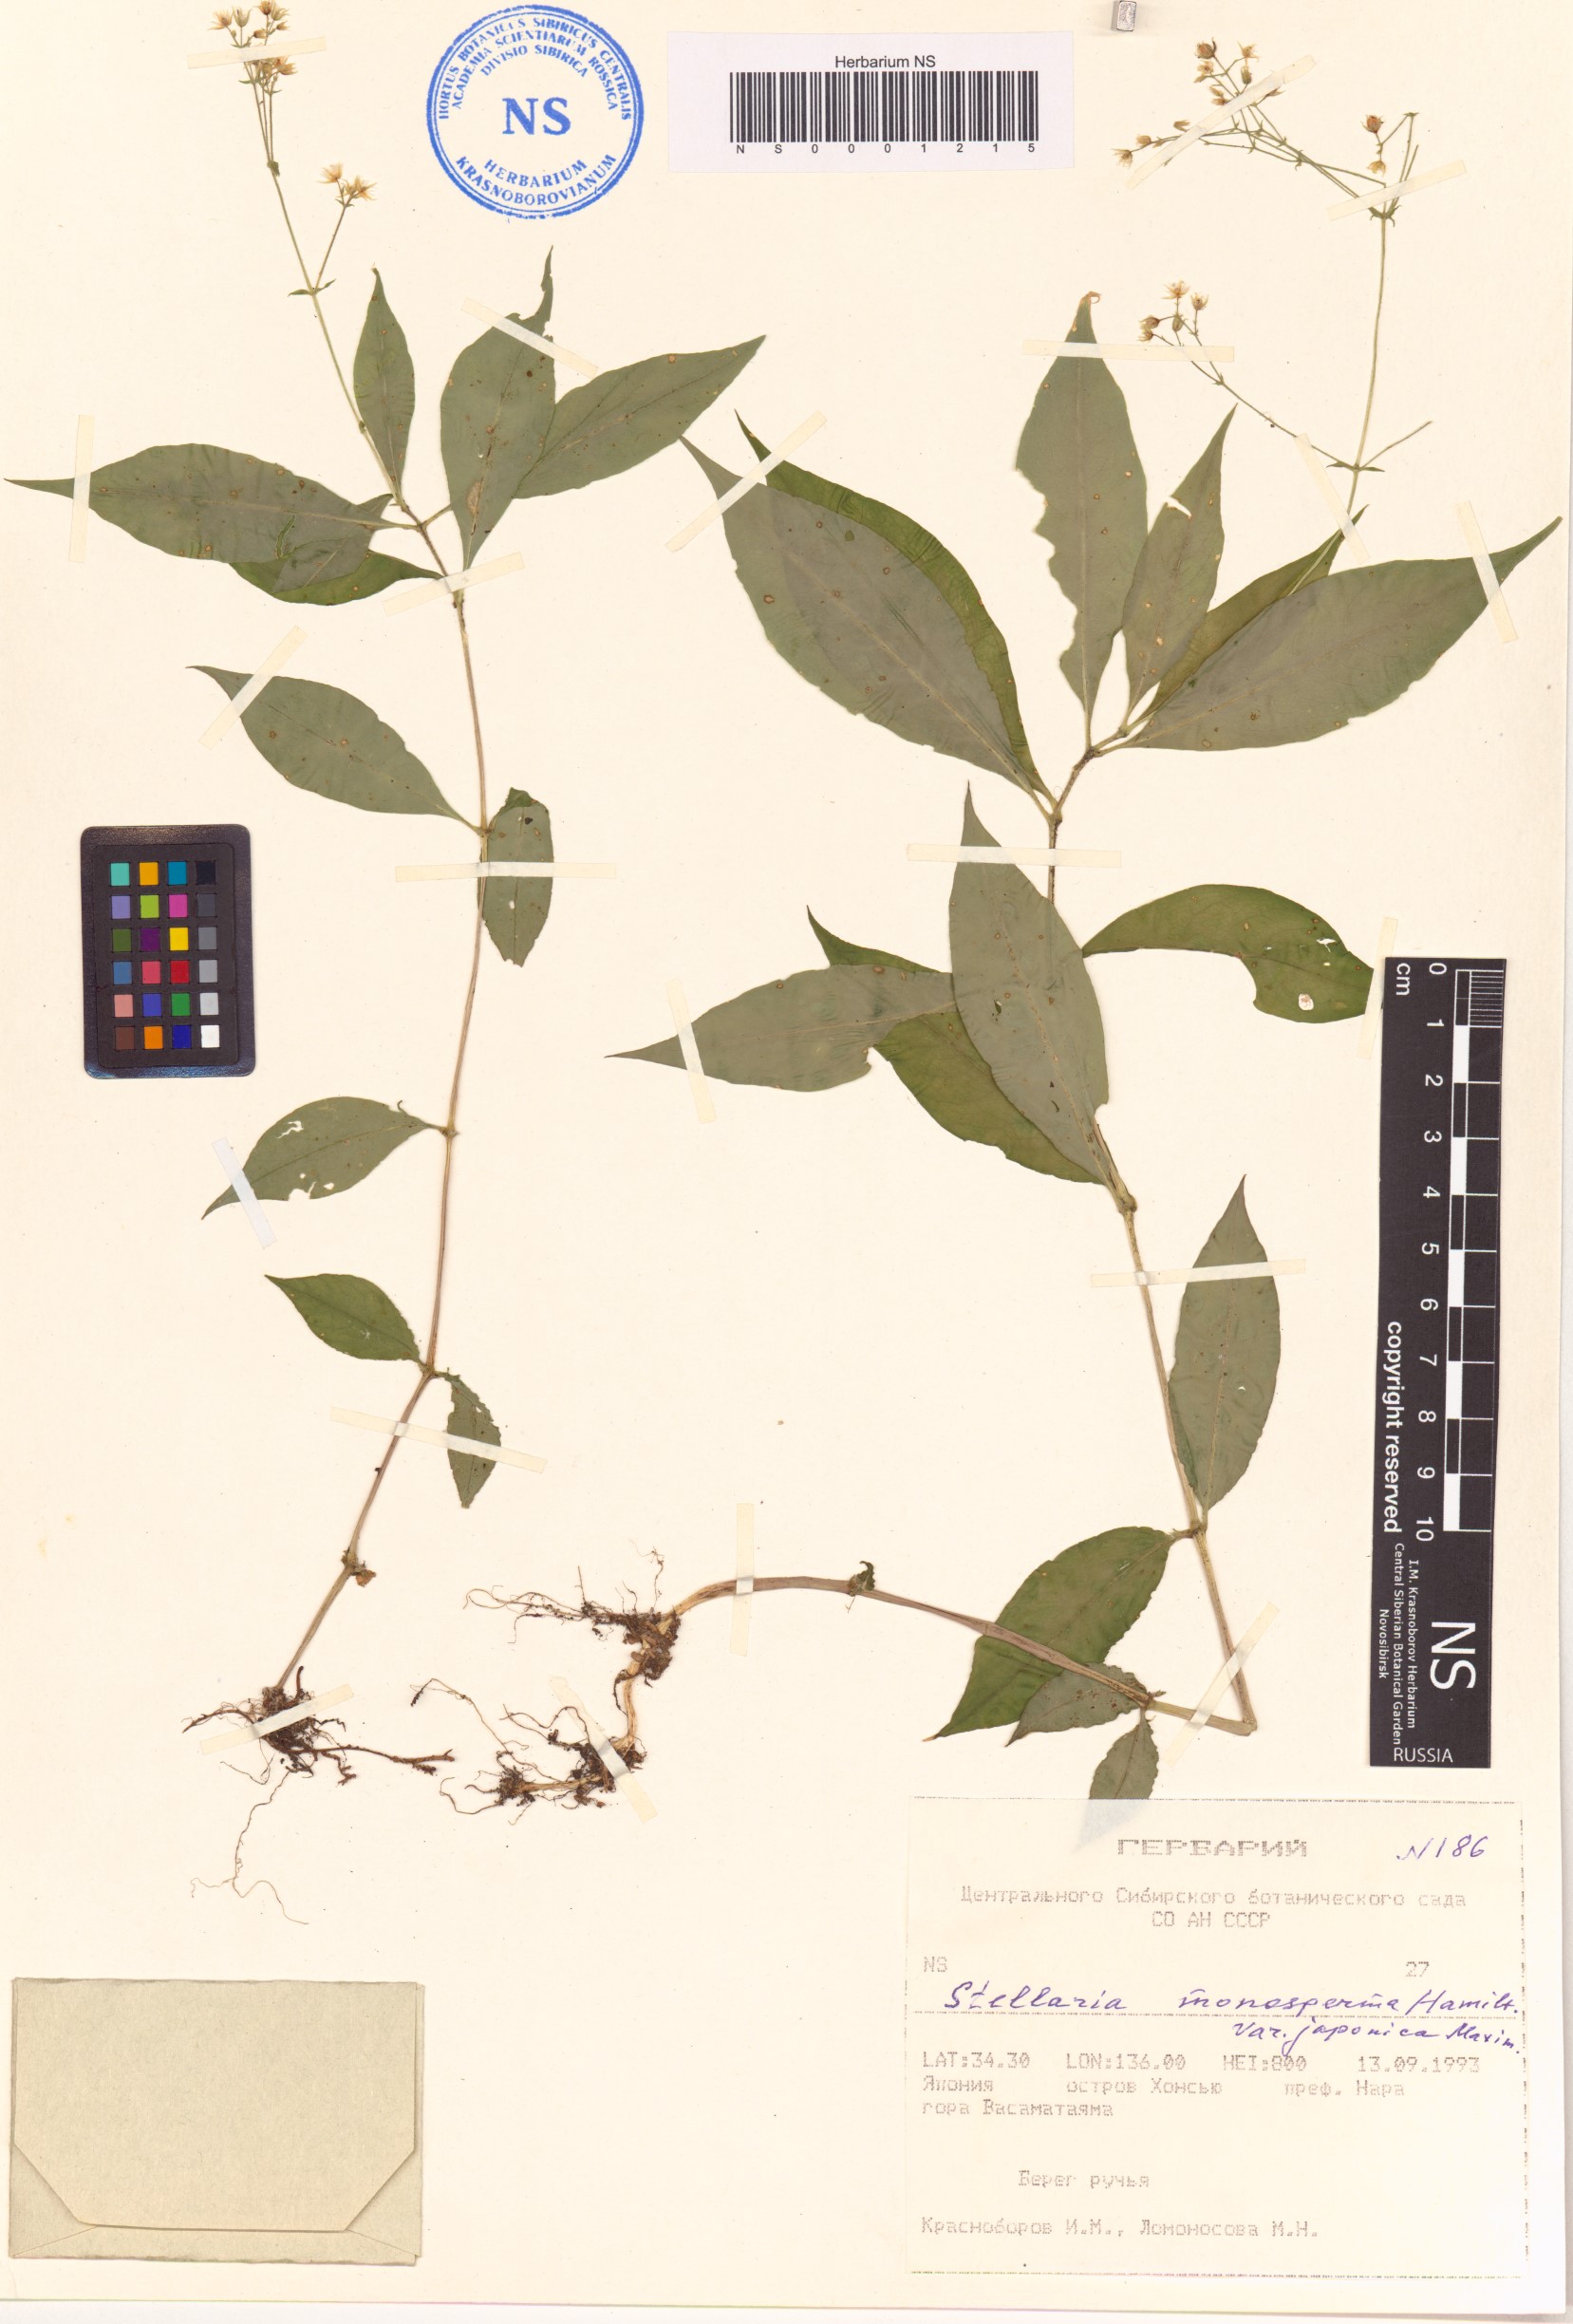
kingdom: Plantae
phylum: Tracheophyta
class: Magnoliopsida
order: Caryophyllales
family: Caryophyllaceae
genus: Schizotechium
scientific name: Schizotechium monospermum
